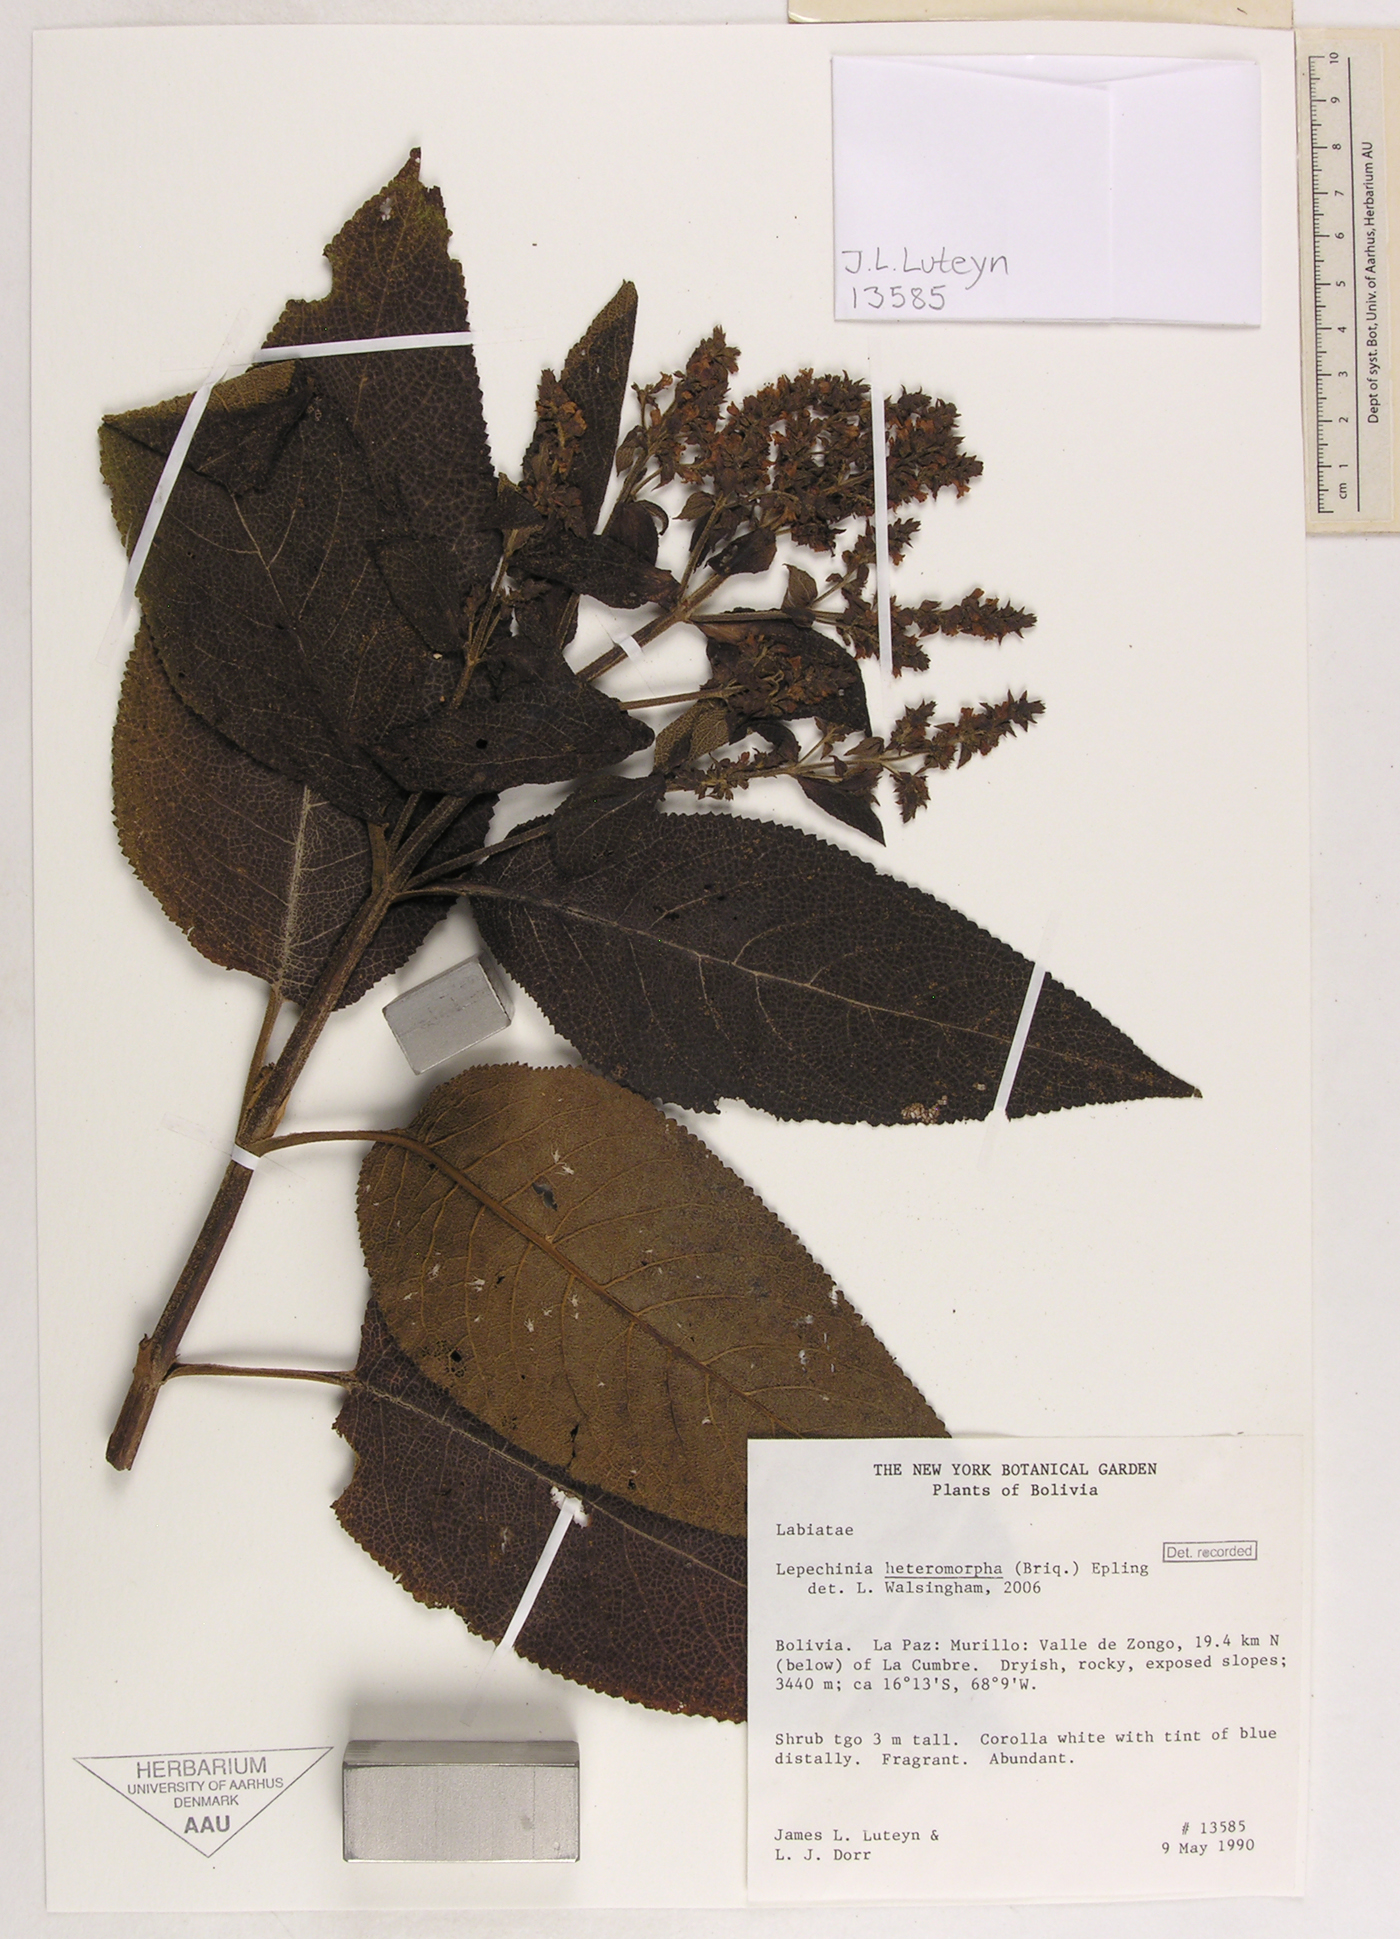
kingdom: Plantae
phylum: Tracheophyta
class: Magnoliopsida
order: Lamiales
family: Lamiaceae
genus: Lepechinia
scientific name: Lepechinia heteromorpha
